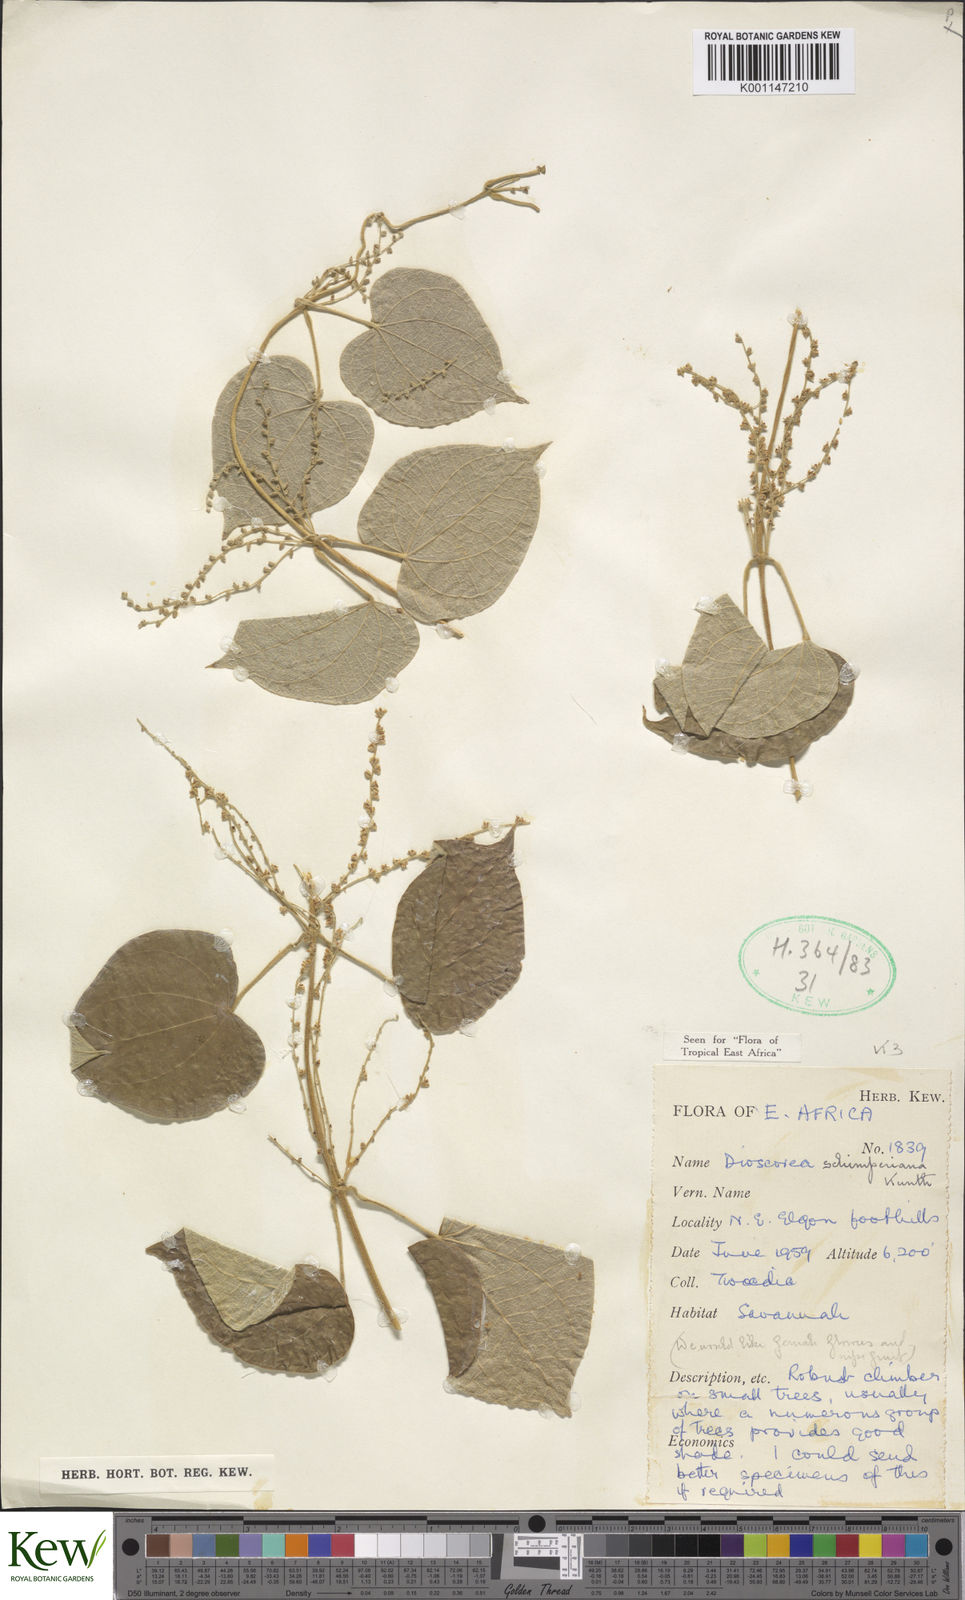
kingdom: Plantae
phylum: Tracheophyta
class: Liliopsida
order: Dioscoreales
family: Dioscoreaceae
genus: Dioscorea
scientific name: Dioscorea schimperiana
